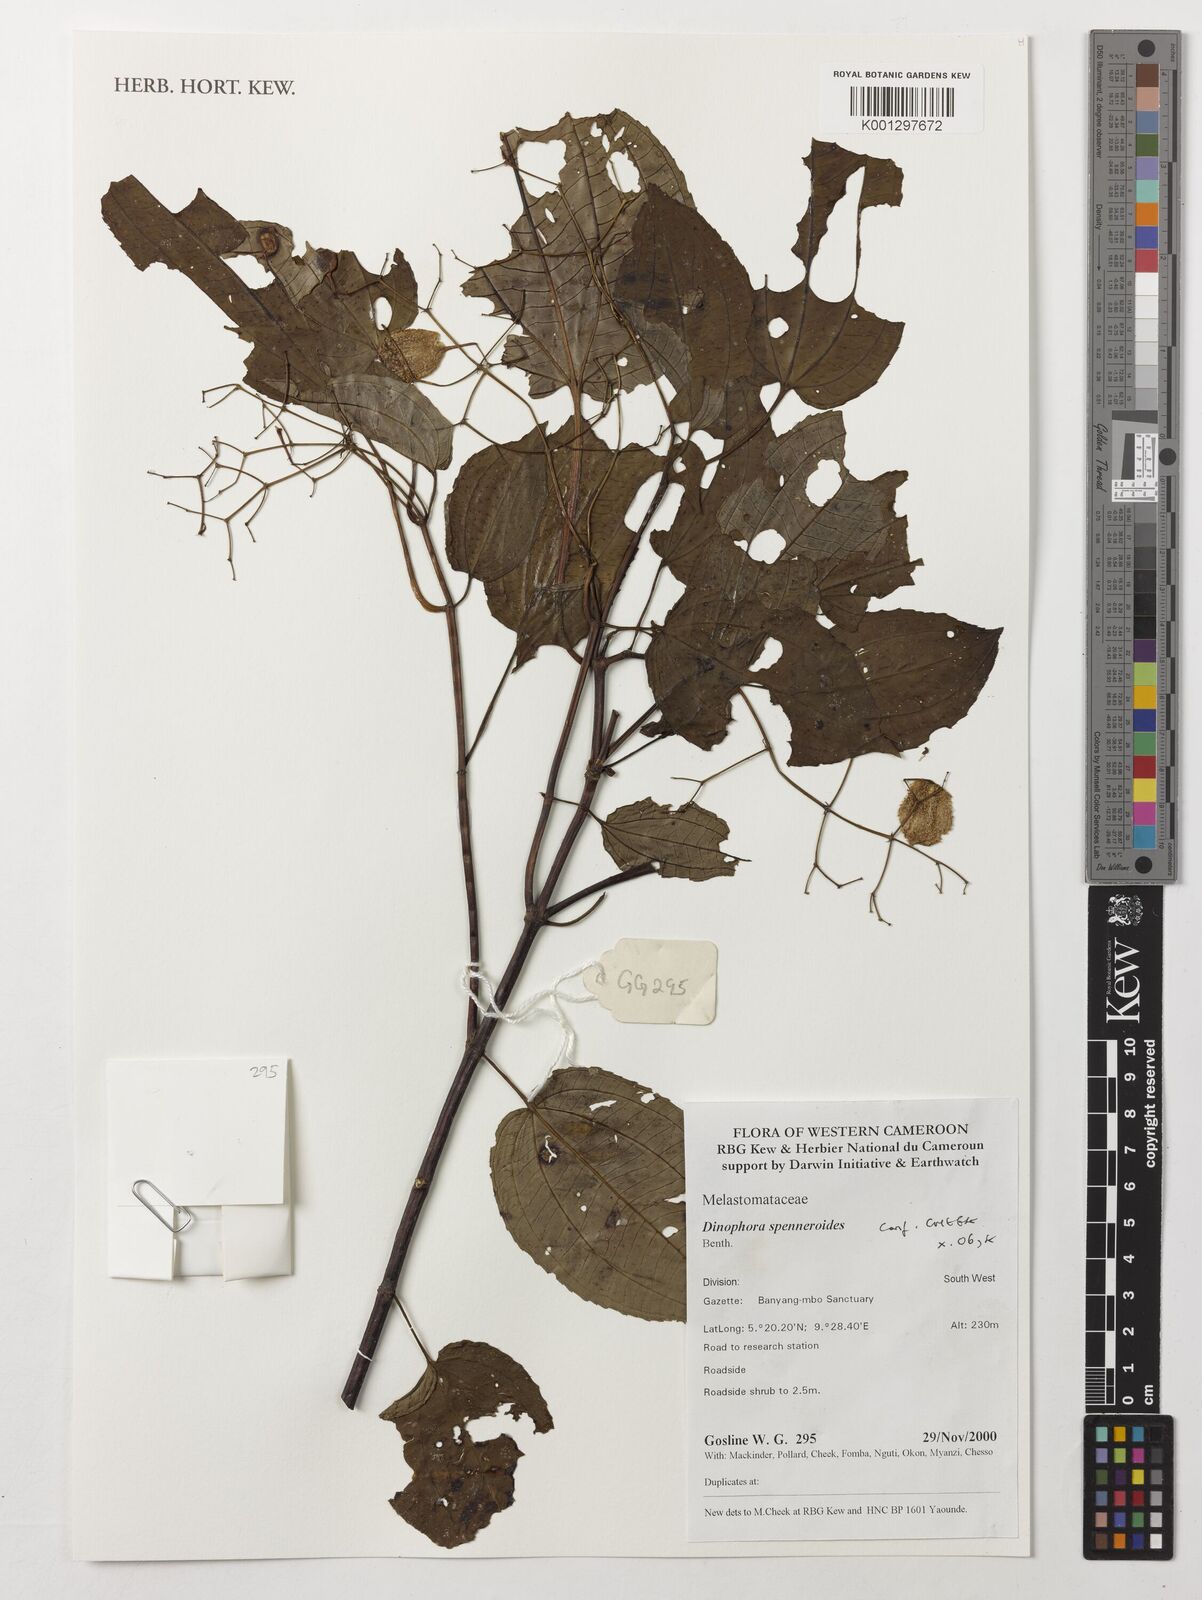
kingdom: Plantae
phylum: Tracheophyta
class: Magnoliopsida
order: Myrtales
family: Melastomataceae
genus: Dinophora
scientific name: Dinophora spenneroides
